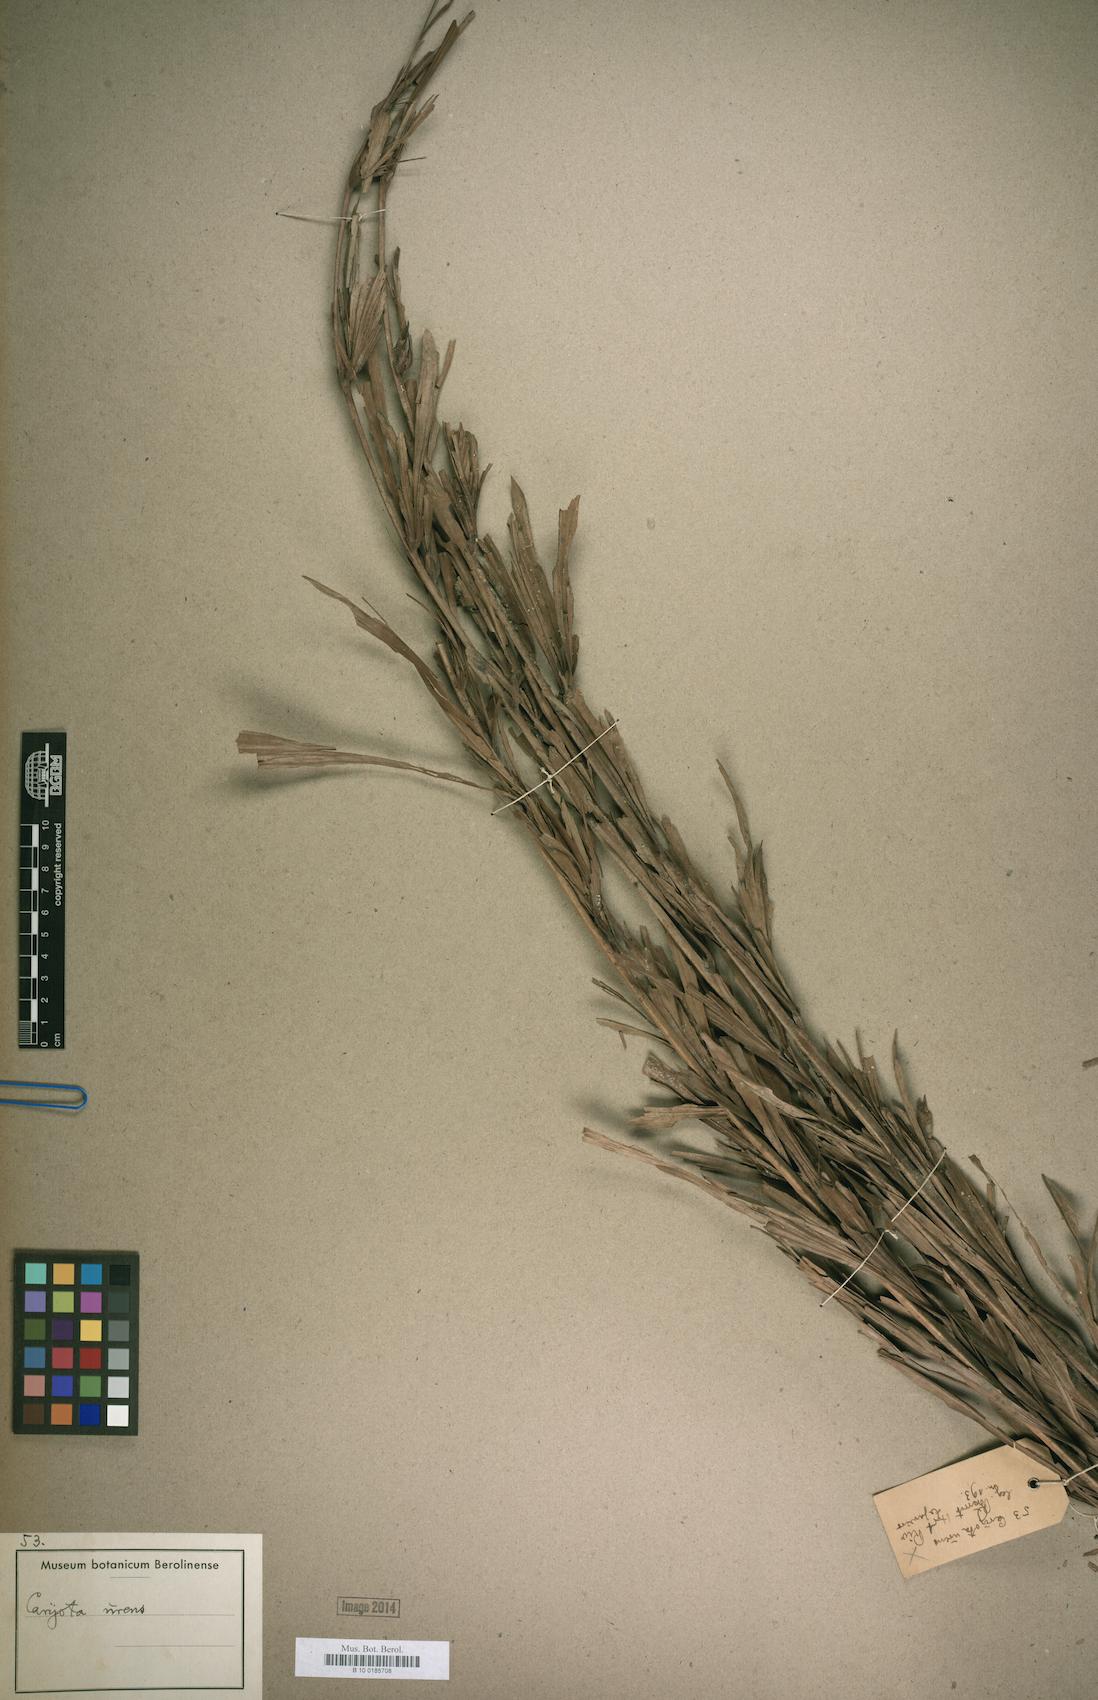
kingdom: Plantae
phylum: Tracheophyta
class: Liliopsida
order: Arecales
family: Arecaceae
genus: Caryota
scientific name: Caryota urens
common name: Jaggery palm
